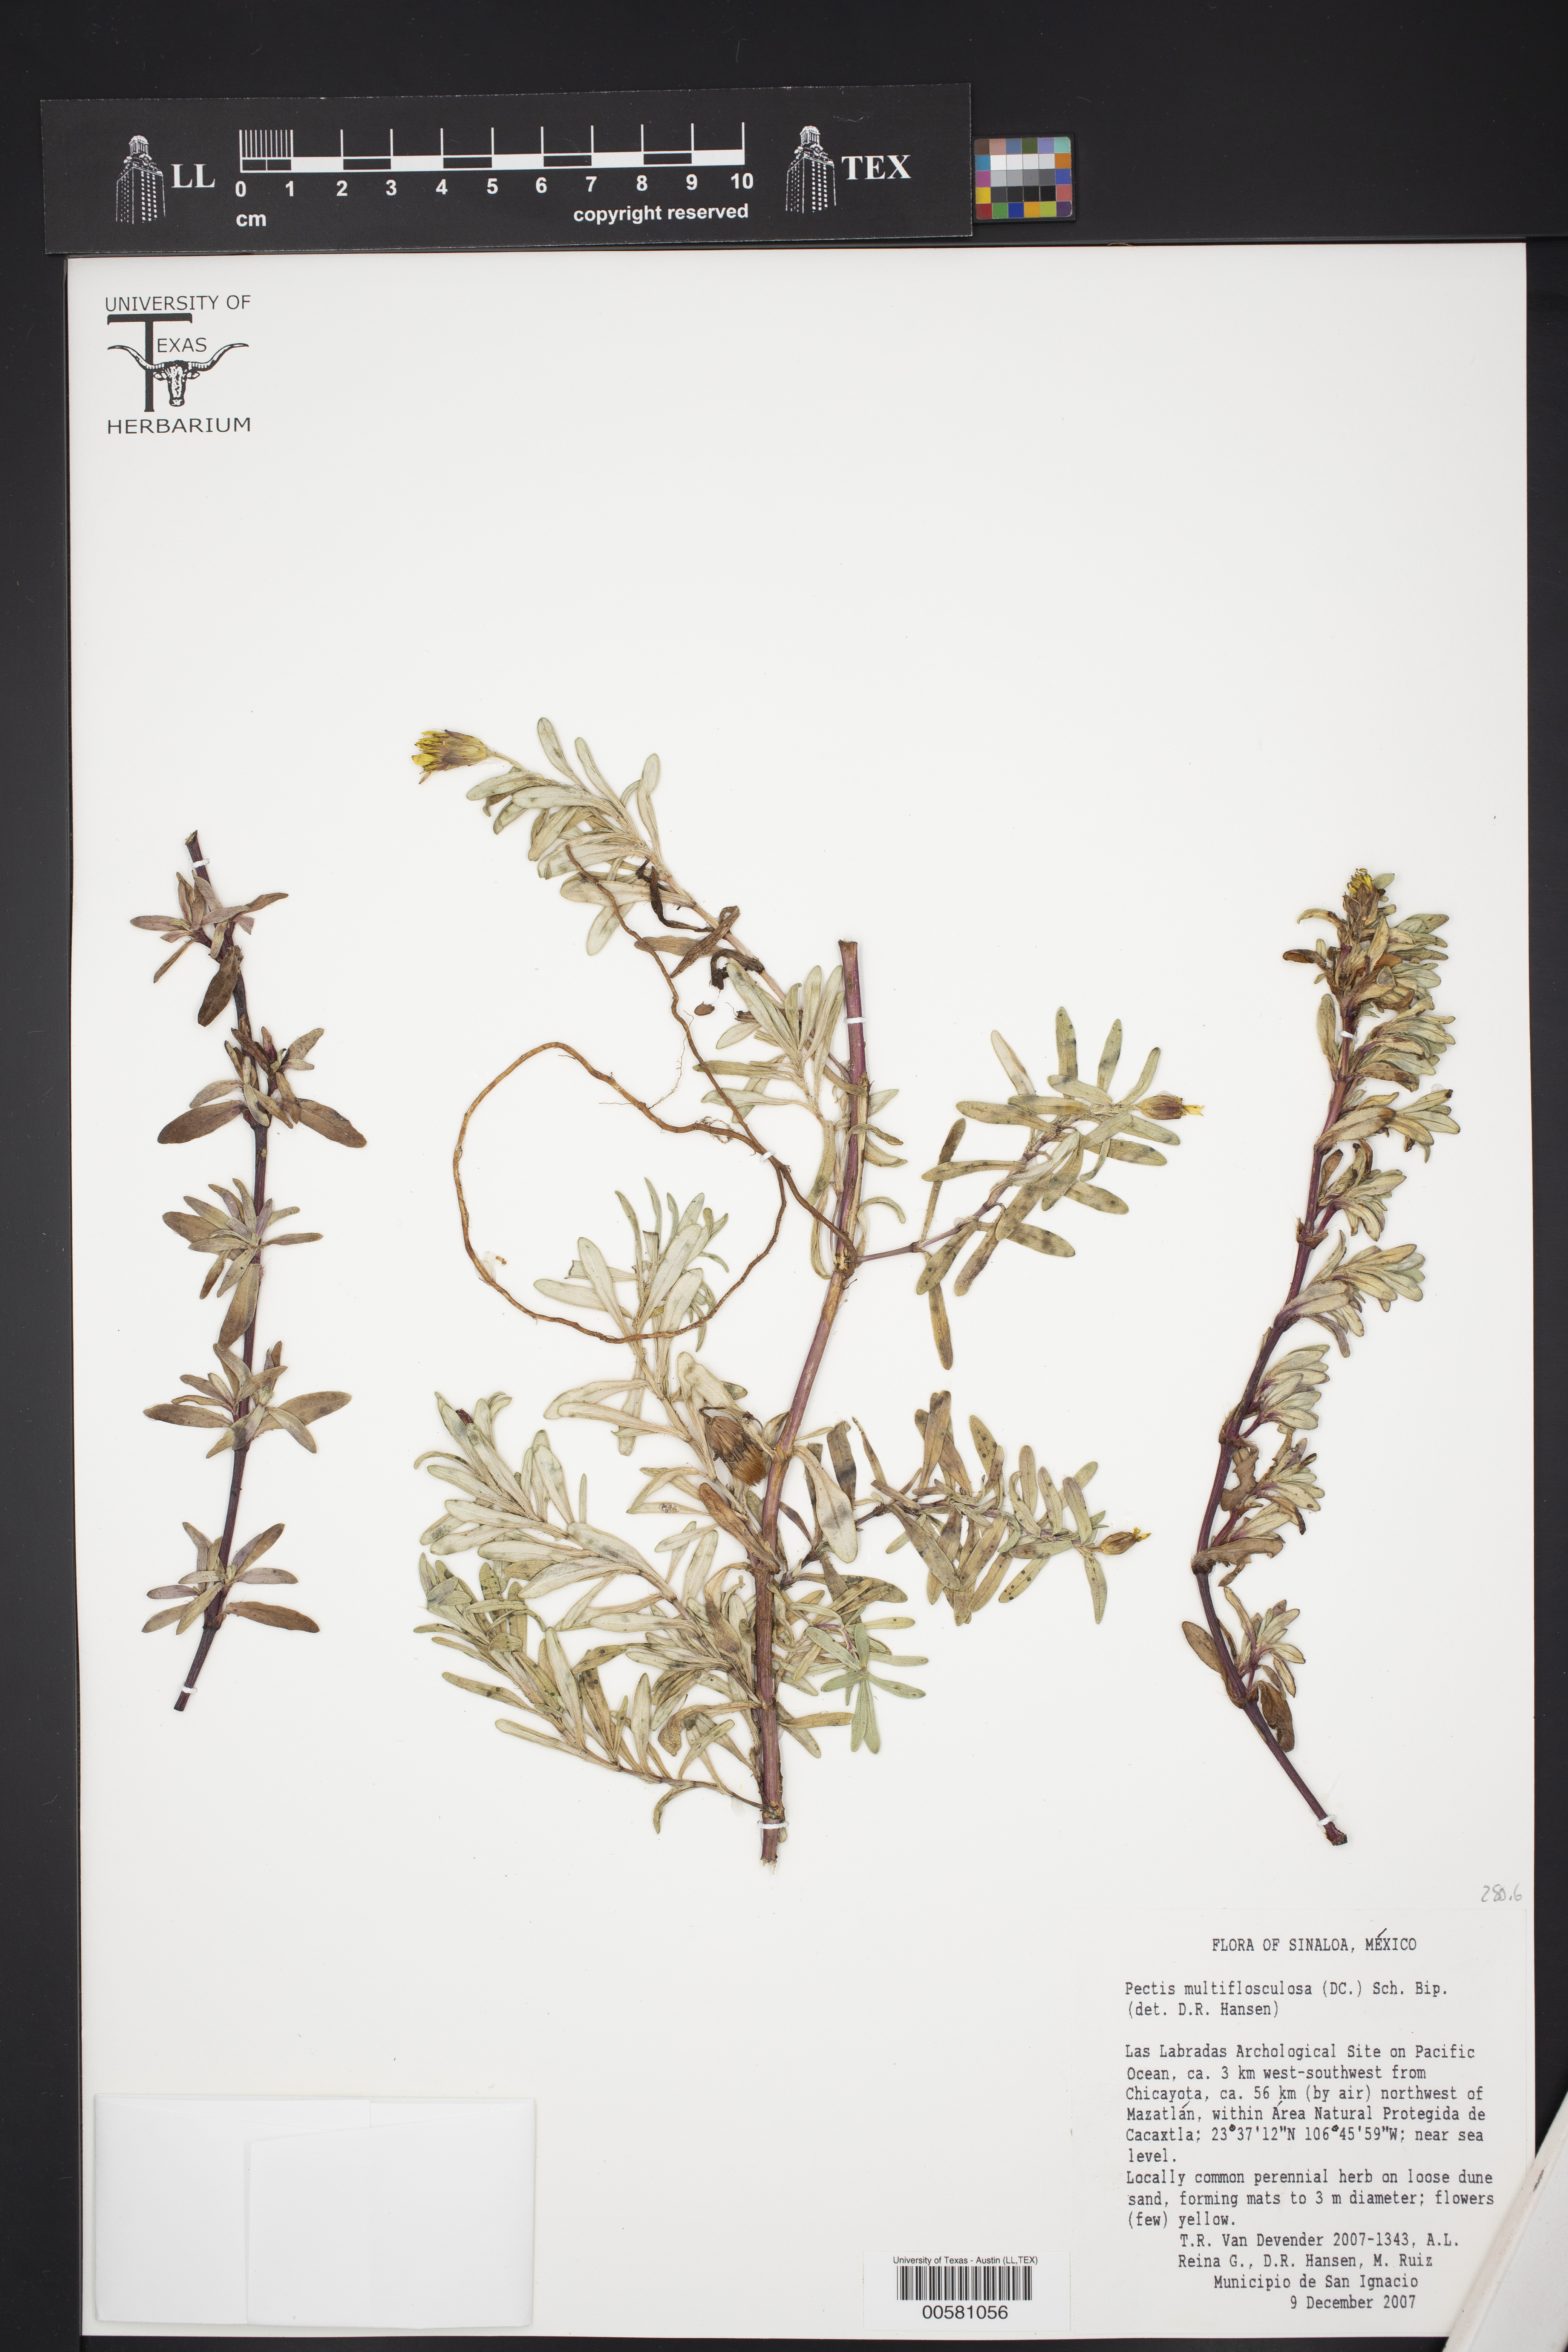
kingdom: Plantae
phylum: Tracheophyta
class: Magnoliopsida
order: Asterales
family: Asteraceae
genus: Pectis
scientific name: Pectis multiflosculosa
